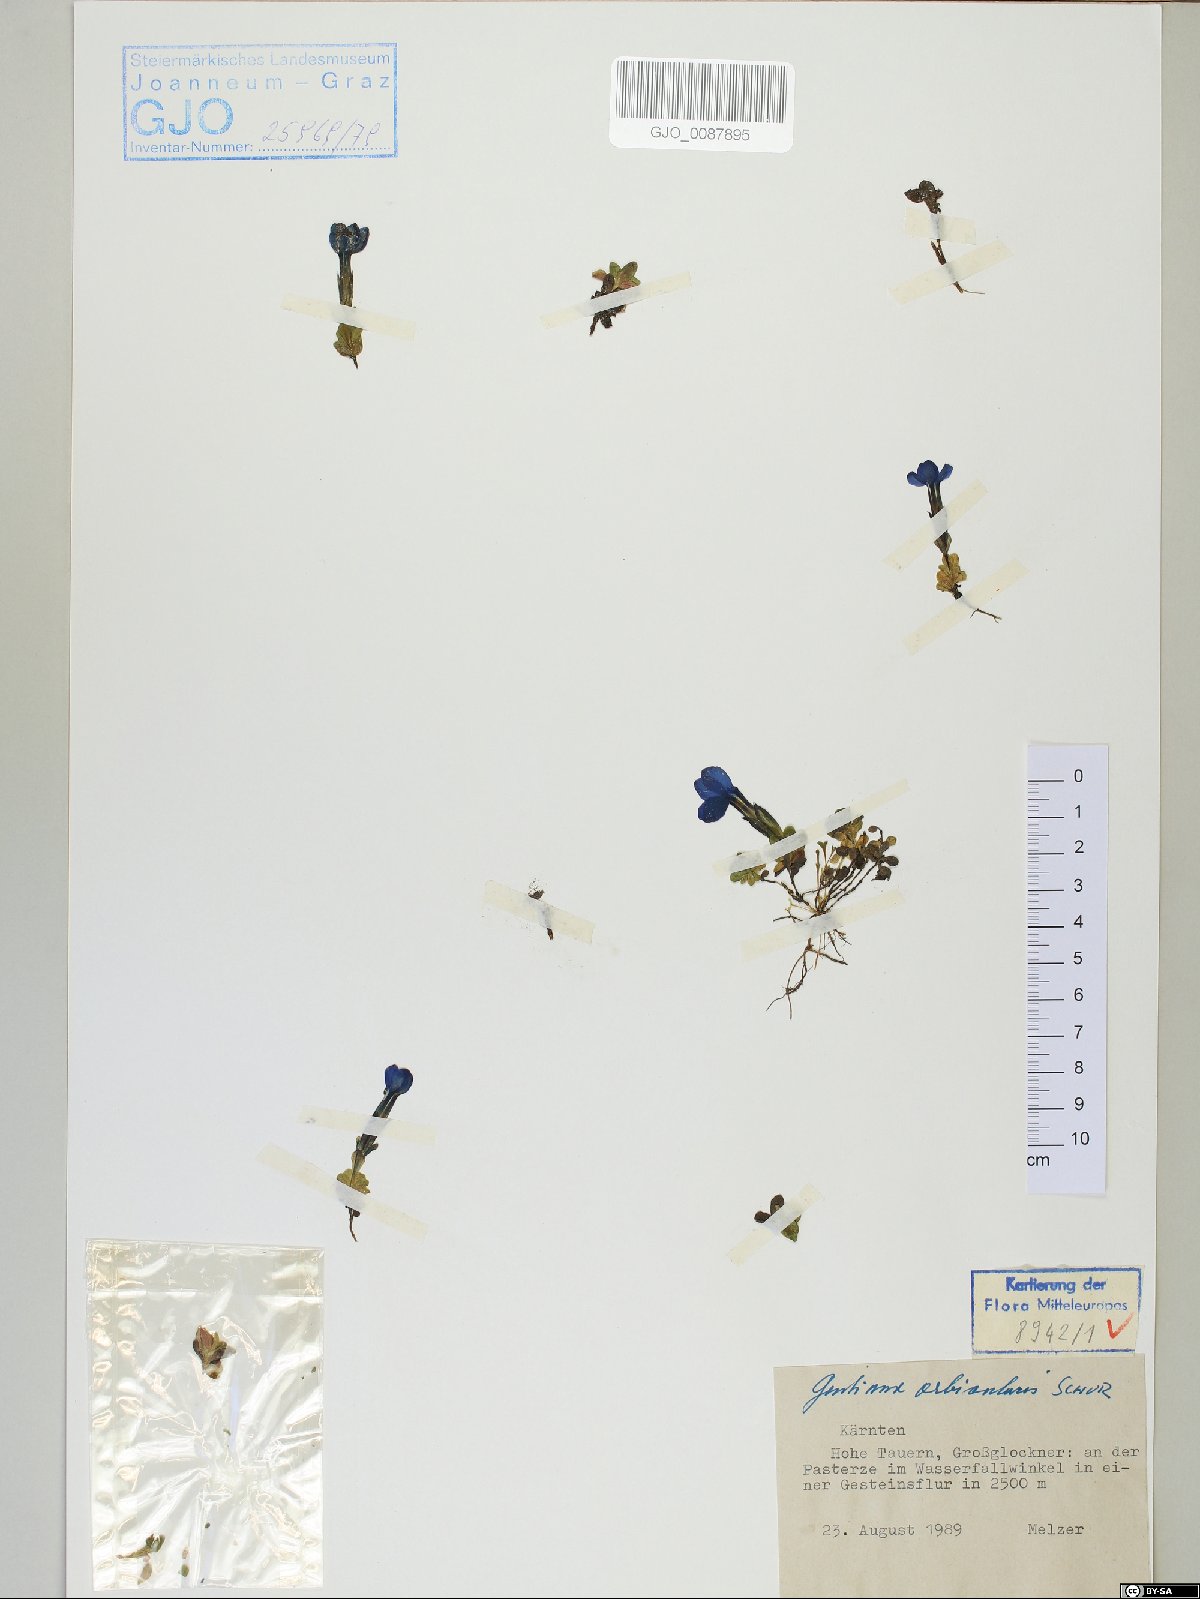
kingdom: Plantae
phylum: Tracheophyta
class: Magnoliopsida
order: Gentianales
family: Gentianaceae
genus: Gentiana
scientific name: Gentiana orbicularis
